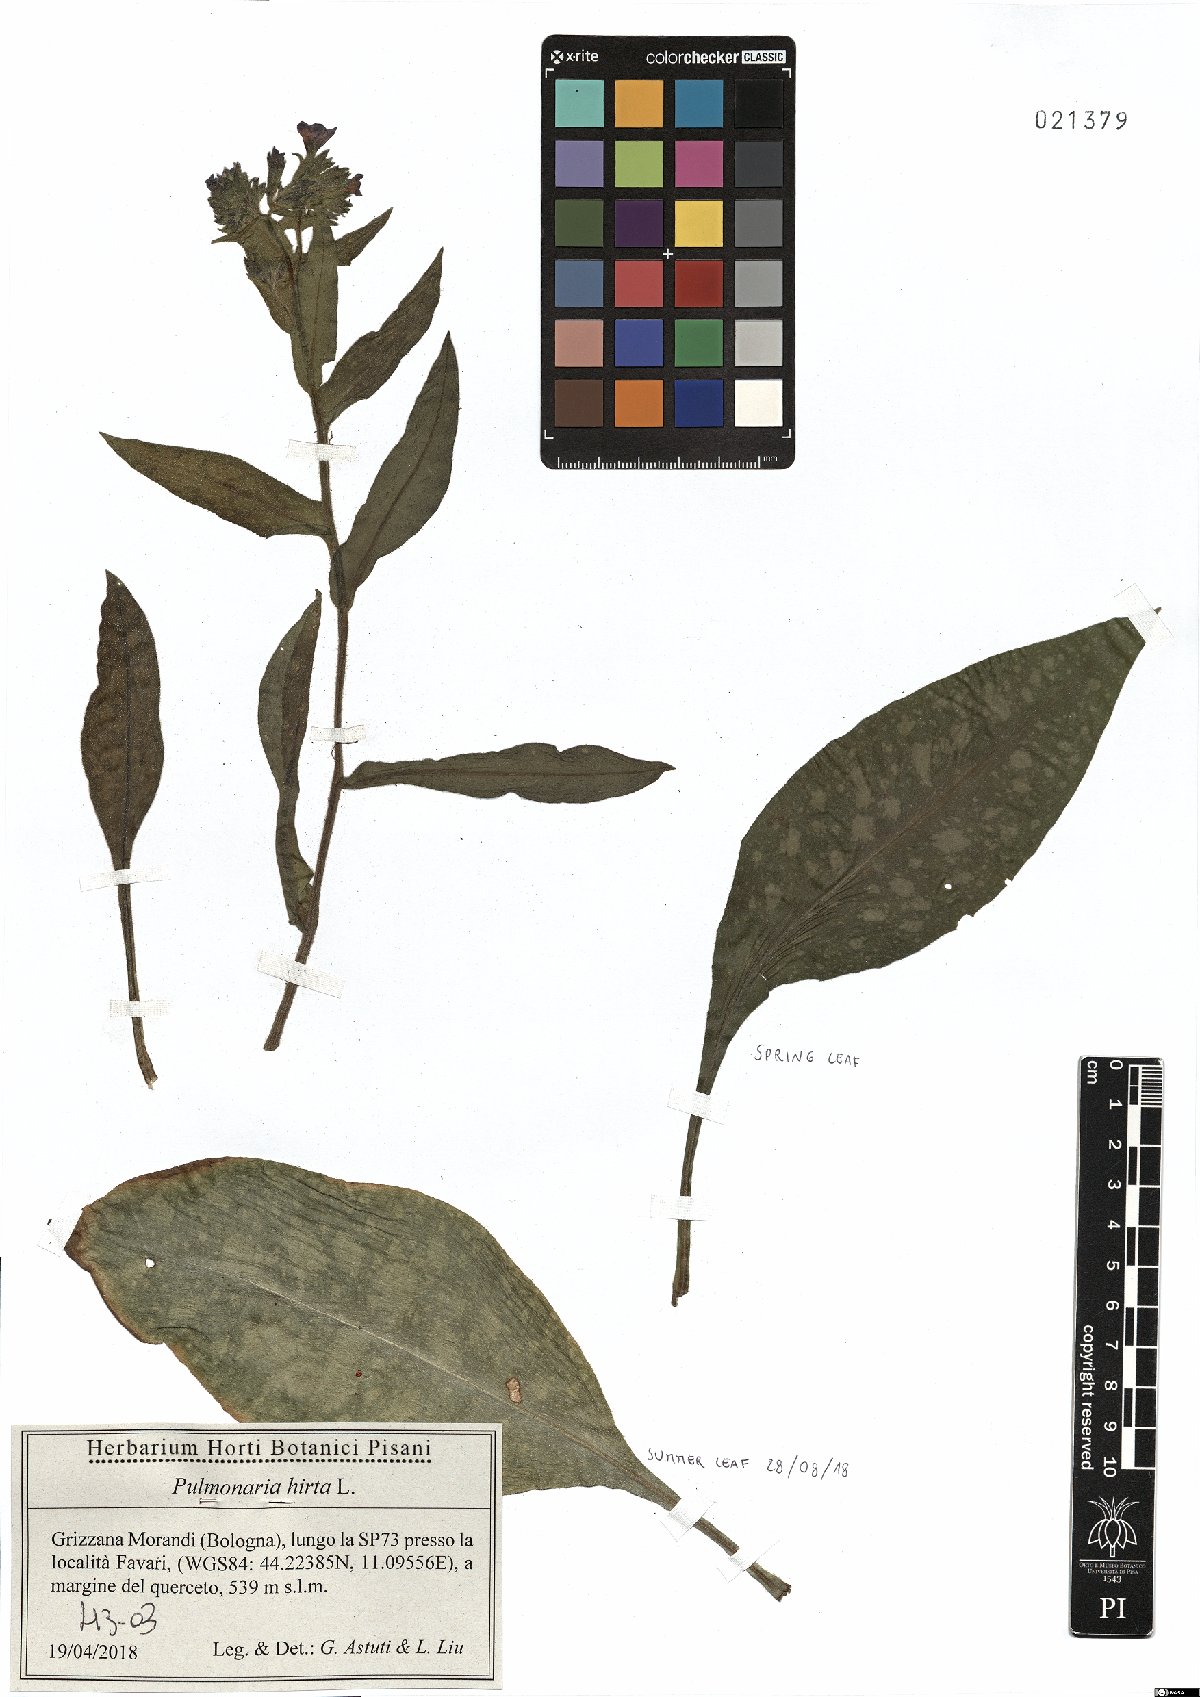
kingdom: Plantae
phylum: Tracheophyta
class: Magnoliopsida
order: Boraginales
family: Boraginaceae
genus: Pulmonaria
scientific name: Pulmonaria hirta
